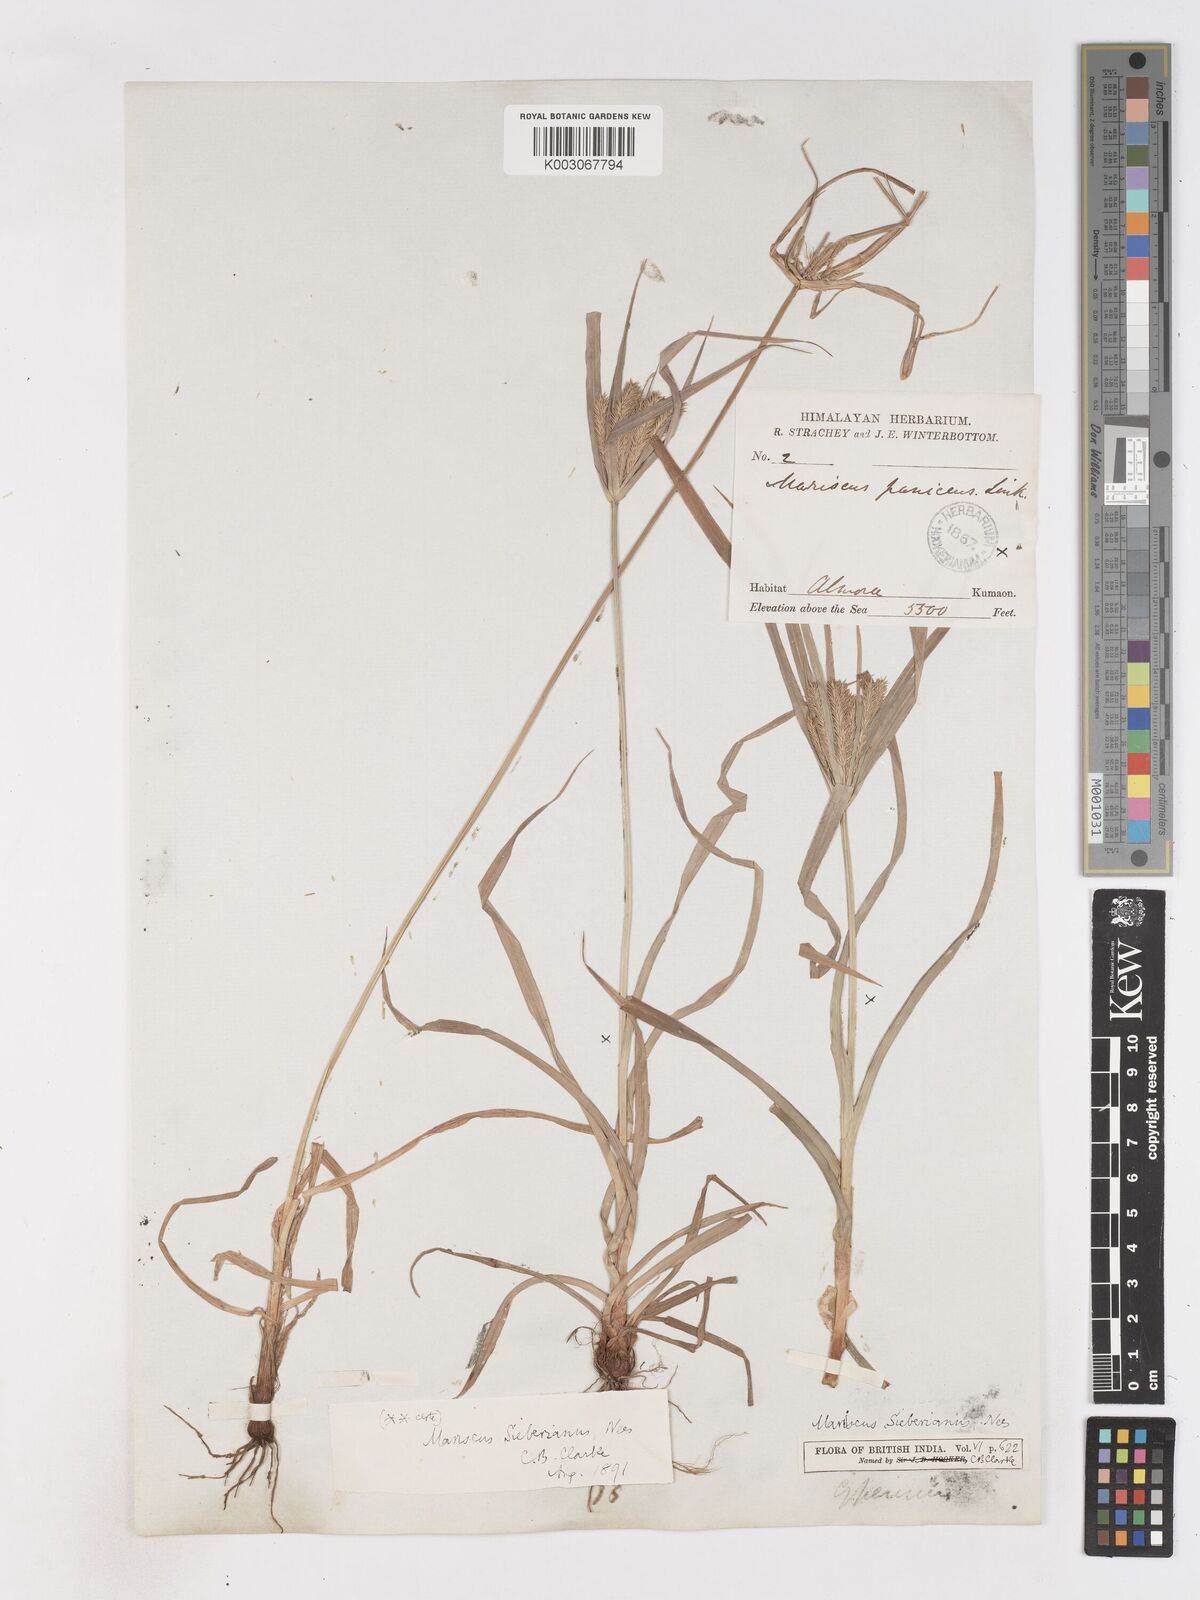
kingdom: Plantae
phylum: Tracheophyta
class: Liliopsida
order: Poales
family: Cyperaceae
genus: Cyperus
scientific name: Cyperus cyperoides
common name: Pacific island flat sedge
